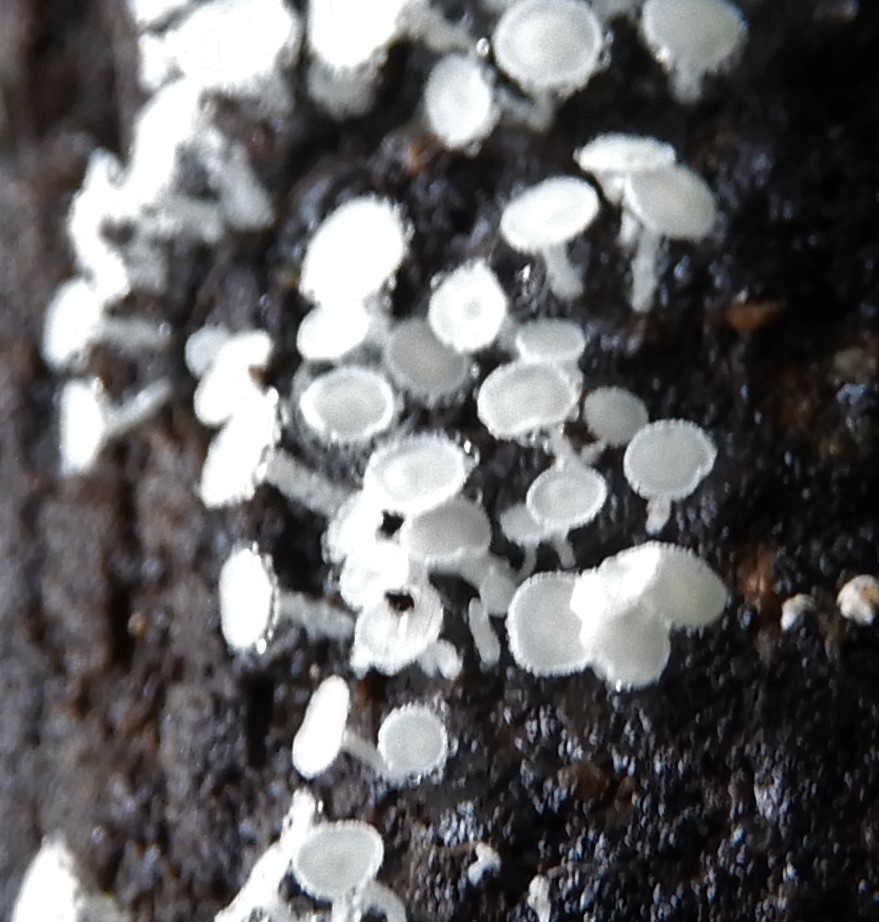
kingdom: Fungi
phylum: Ascomycota
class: Leotiomycetes
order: Helotiales
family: Lachnaceae
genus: Lachnum
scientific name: Lachnum virgineum
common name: jomfru-frynseskive
